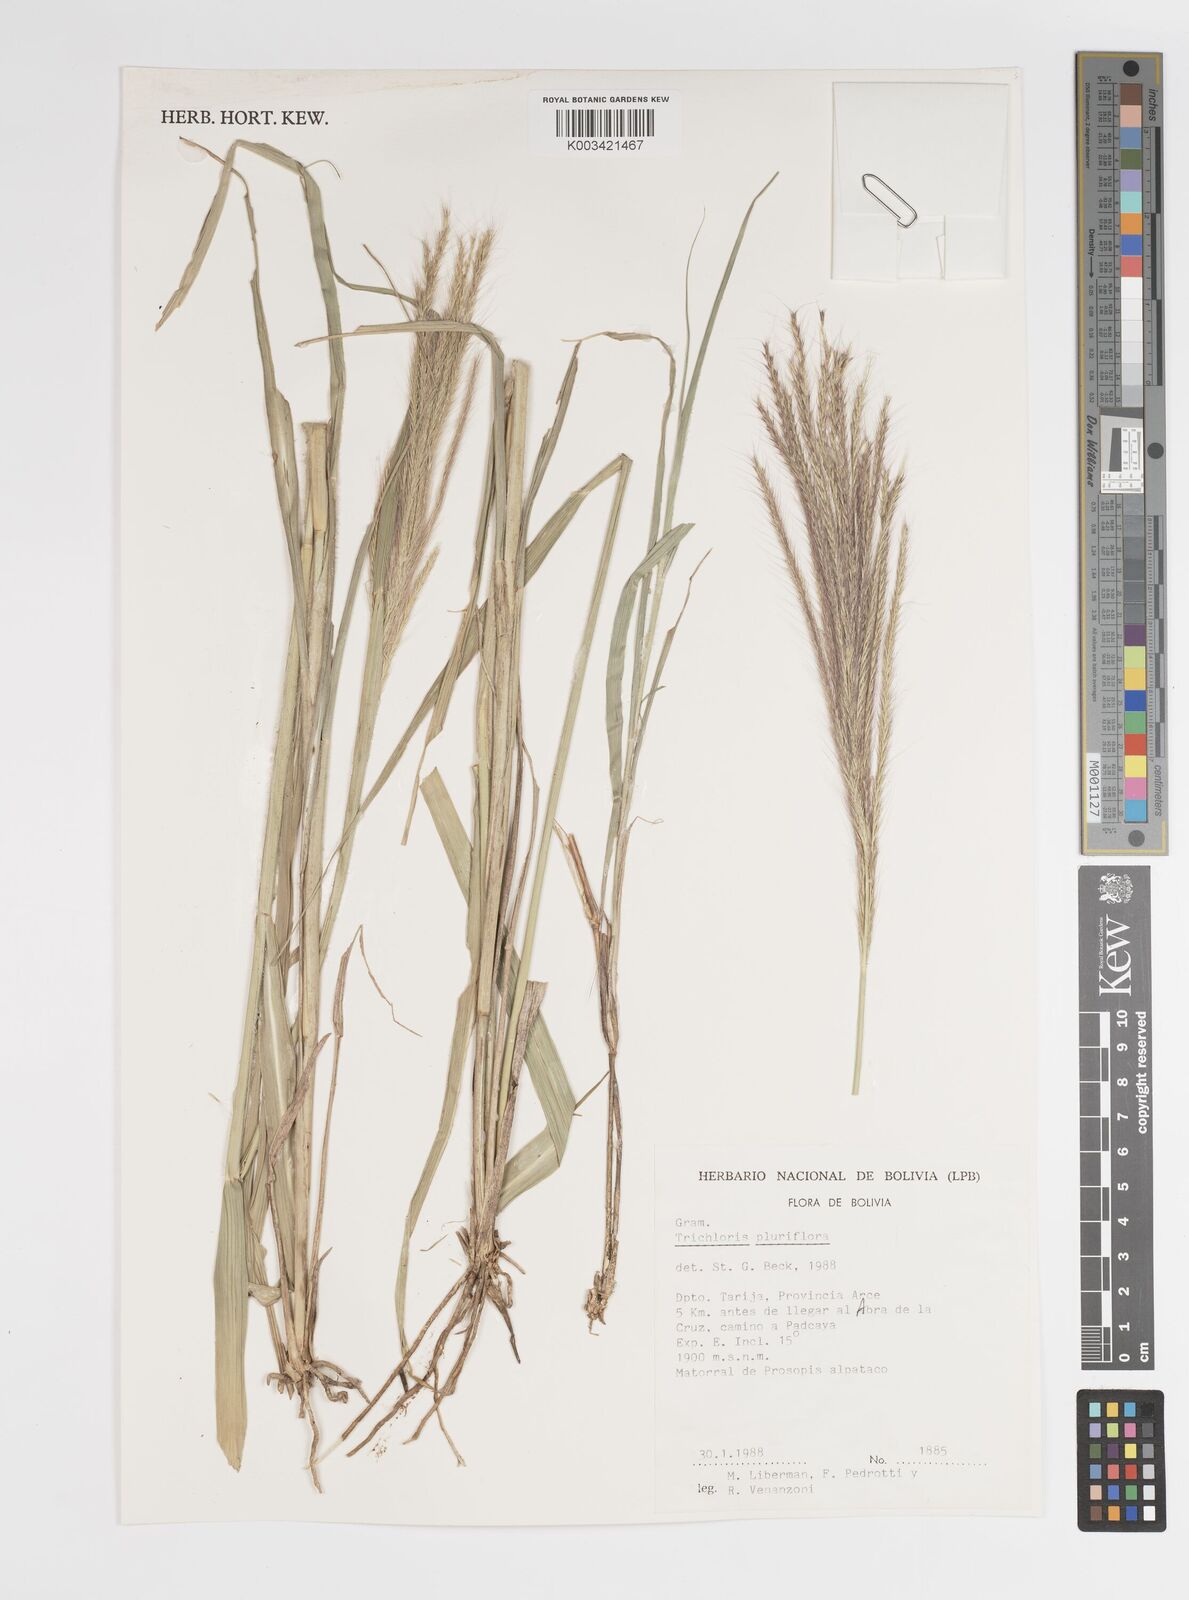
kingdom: Plantae
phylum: Tracheophyta
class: Liliopsida
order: Poales
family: Poaceae
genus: Leptochloa
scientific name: Leptochloa pluriflora
